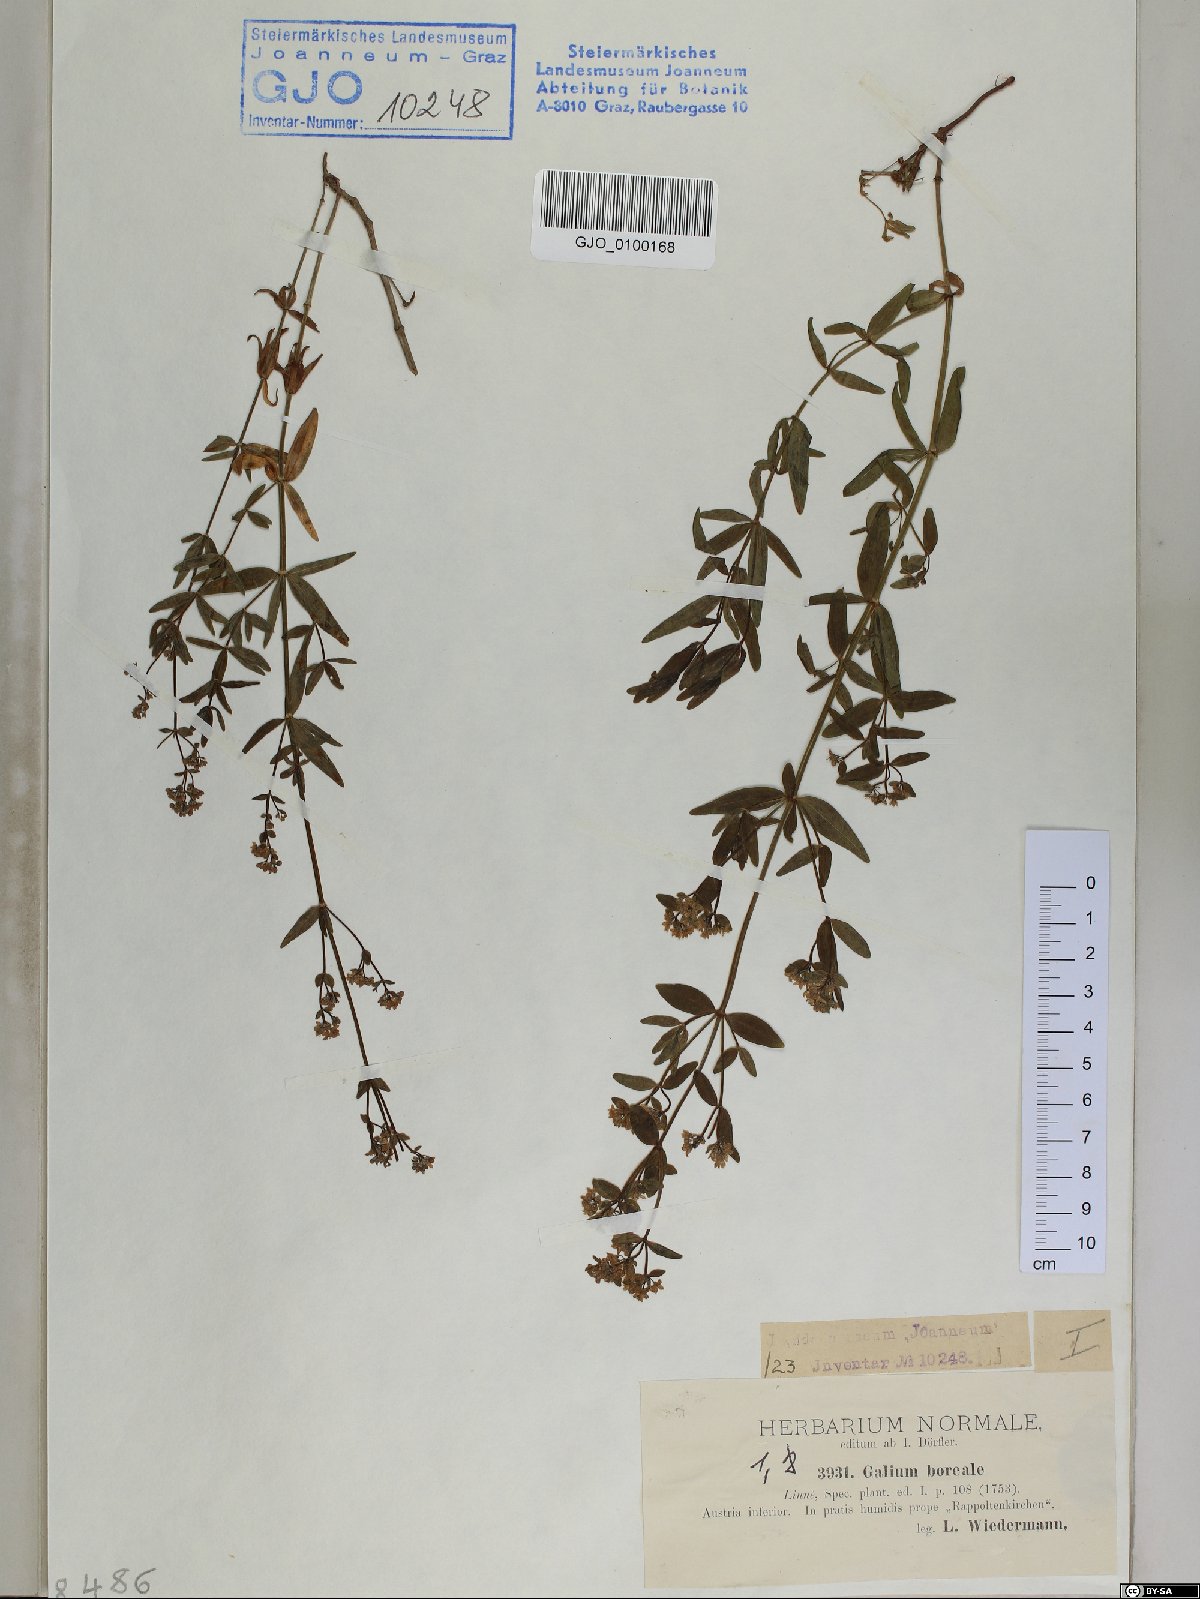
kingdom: Plantae
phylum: Tracheophyta
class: Magnoliopsida
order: Gentianales
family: Rubiaceae
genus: Galium
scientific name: Galium boreale
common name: Northern bedstraw
